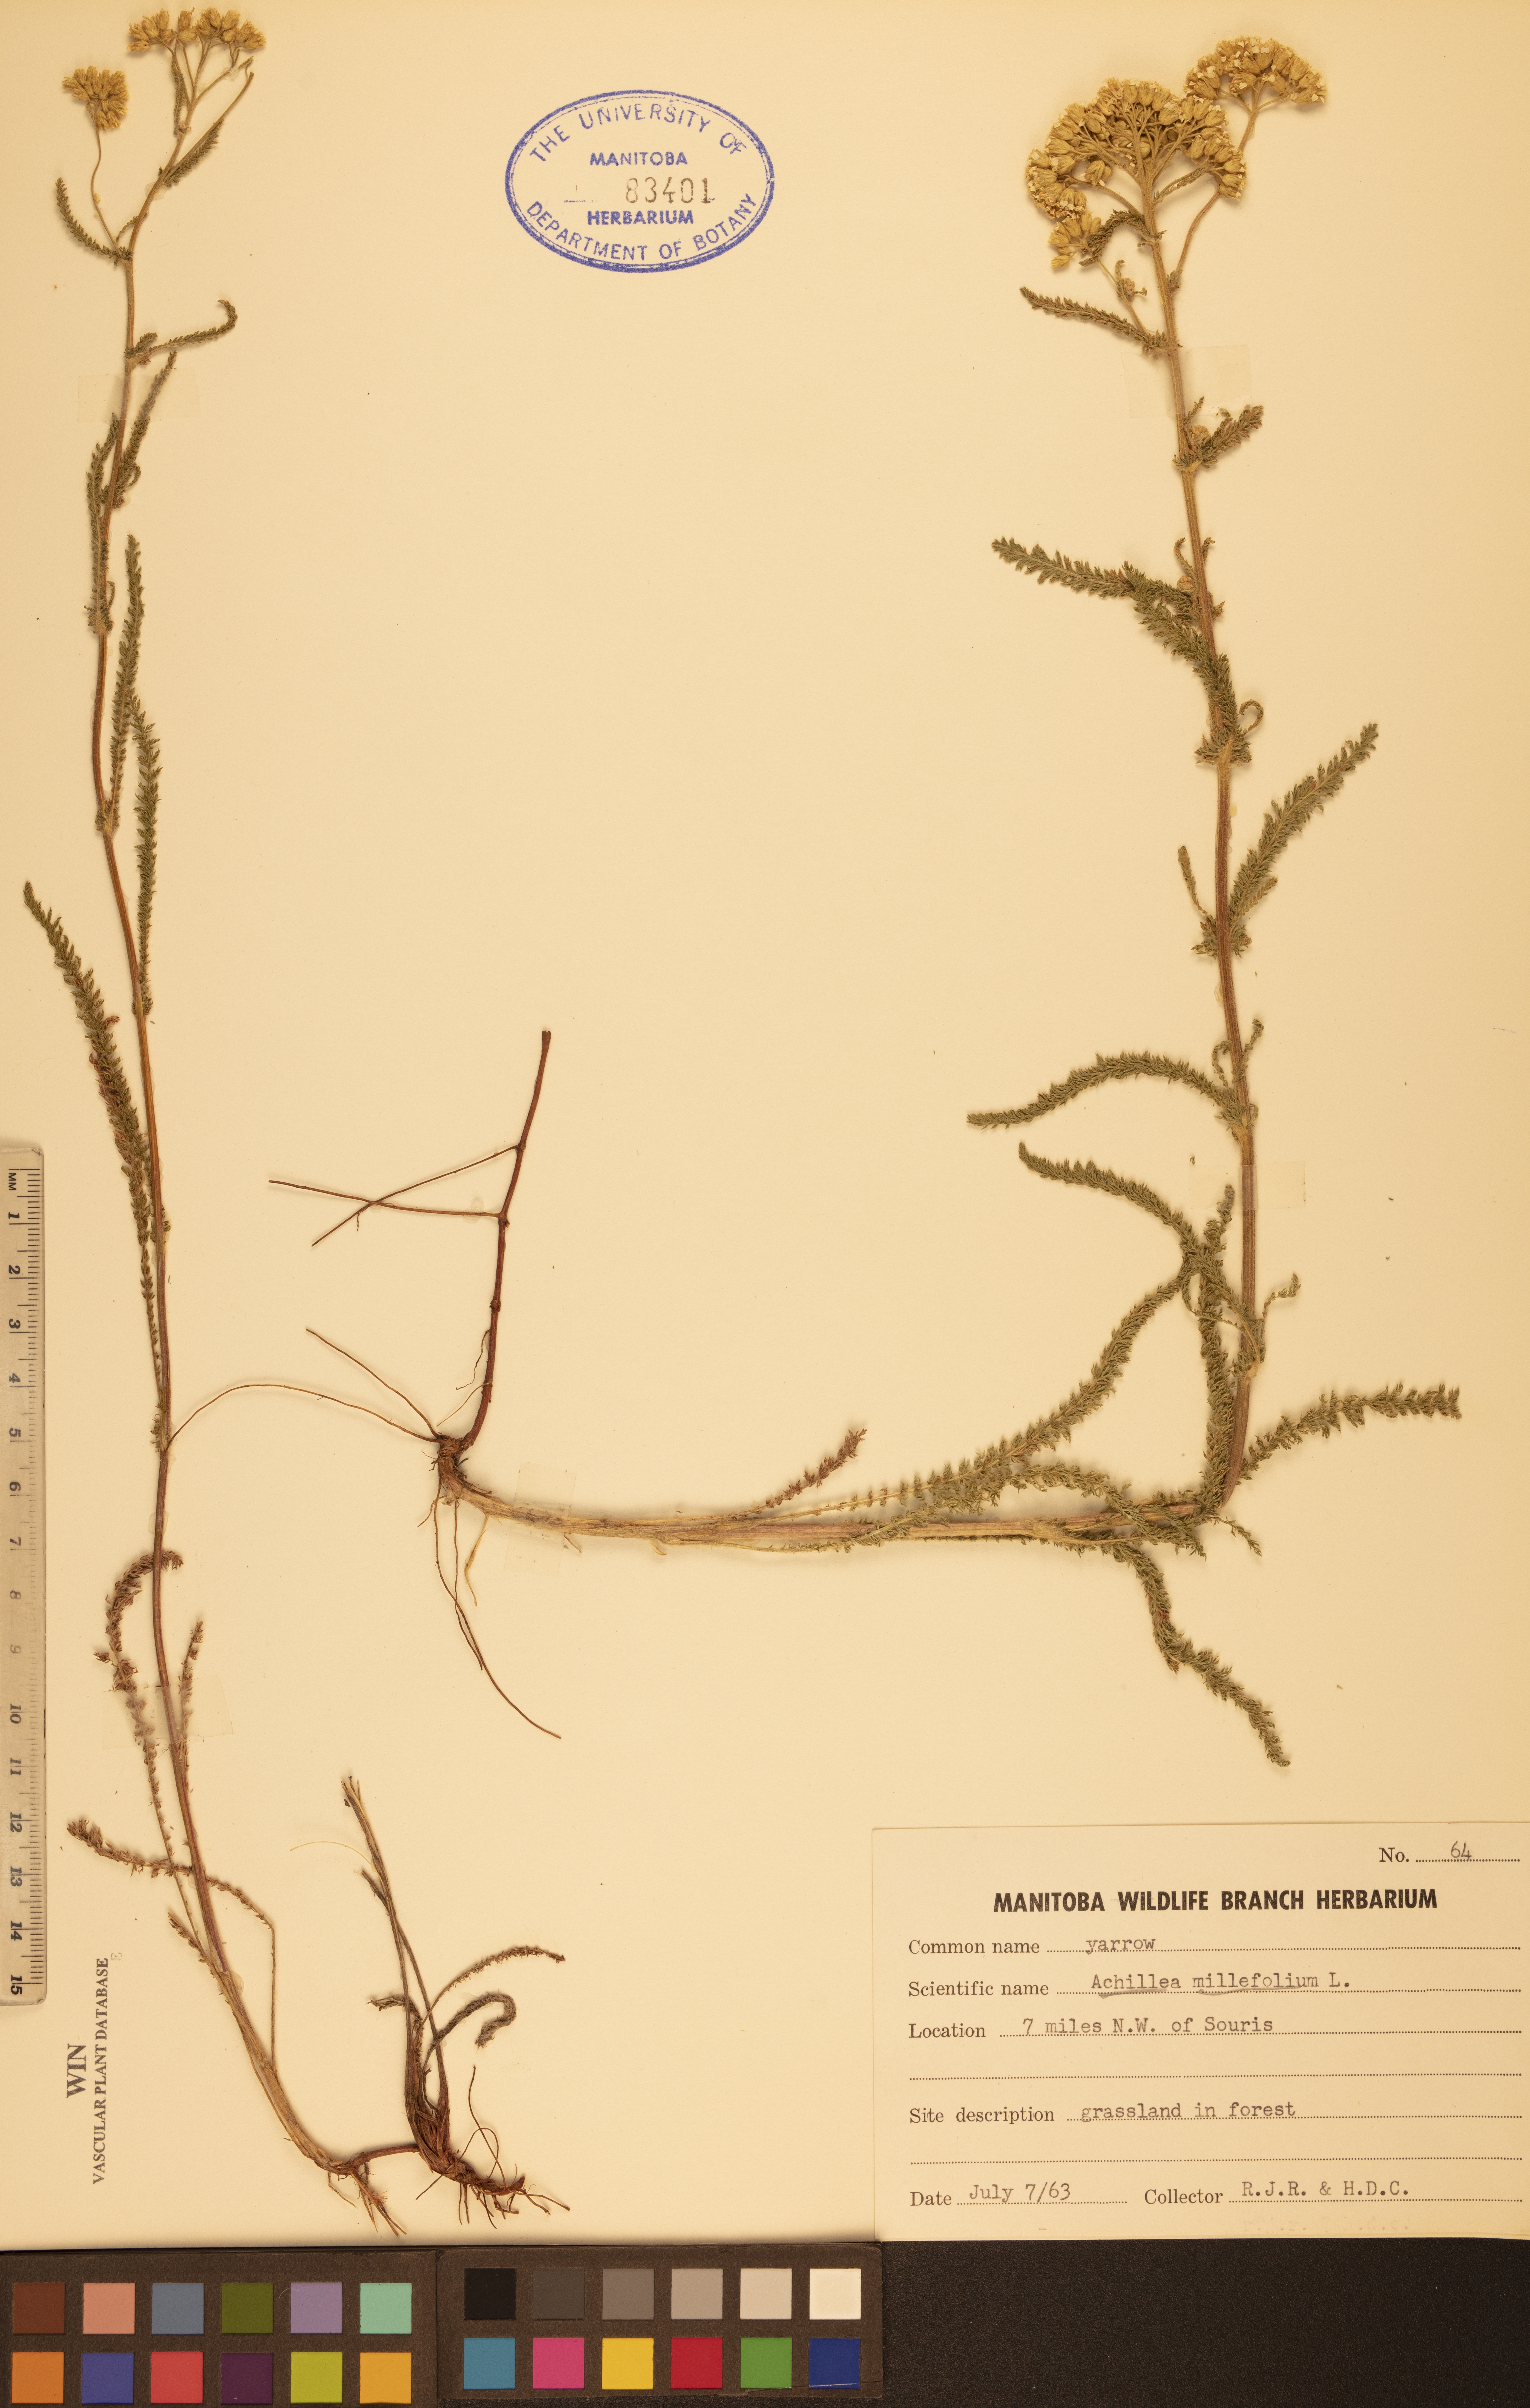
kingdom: Plantae
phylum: Tracheophyta
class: Magnoliopsida
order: Asterales
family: Asteraceae
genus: Achillea
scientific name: Achillea millefolium
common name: Yarrow
